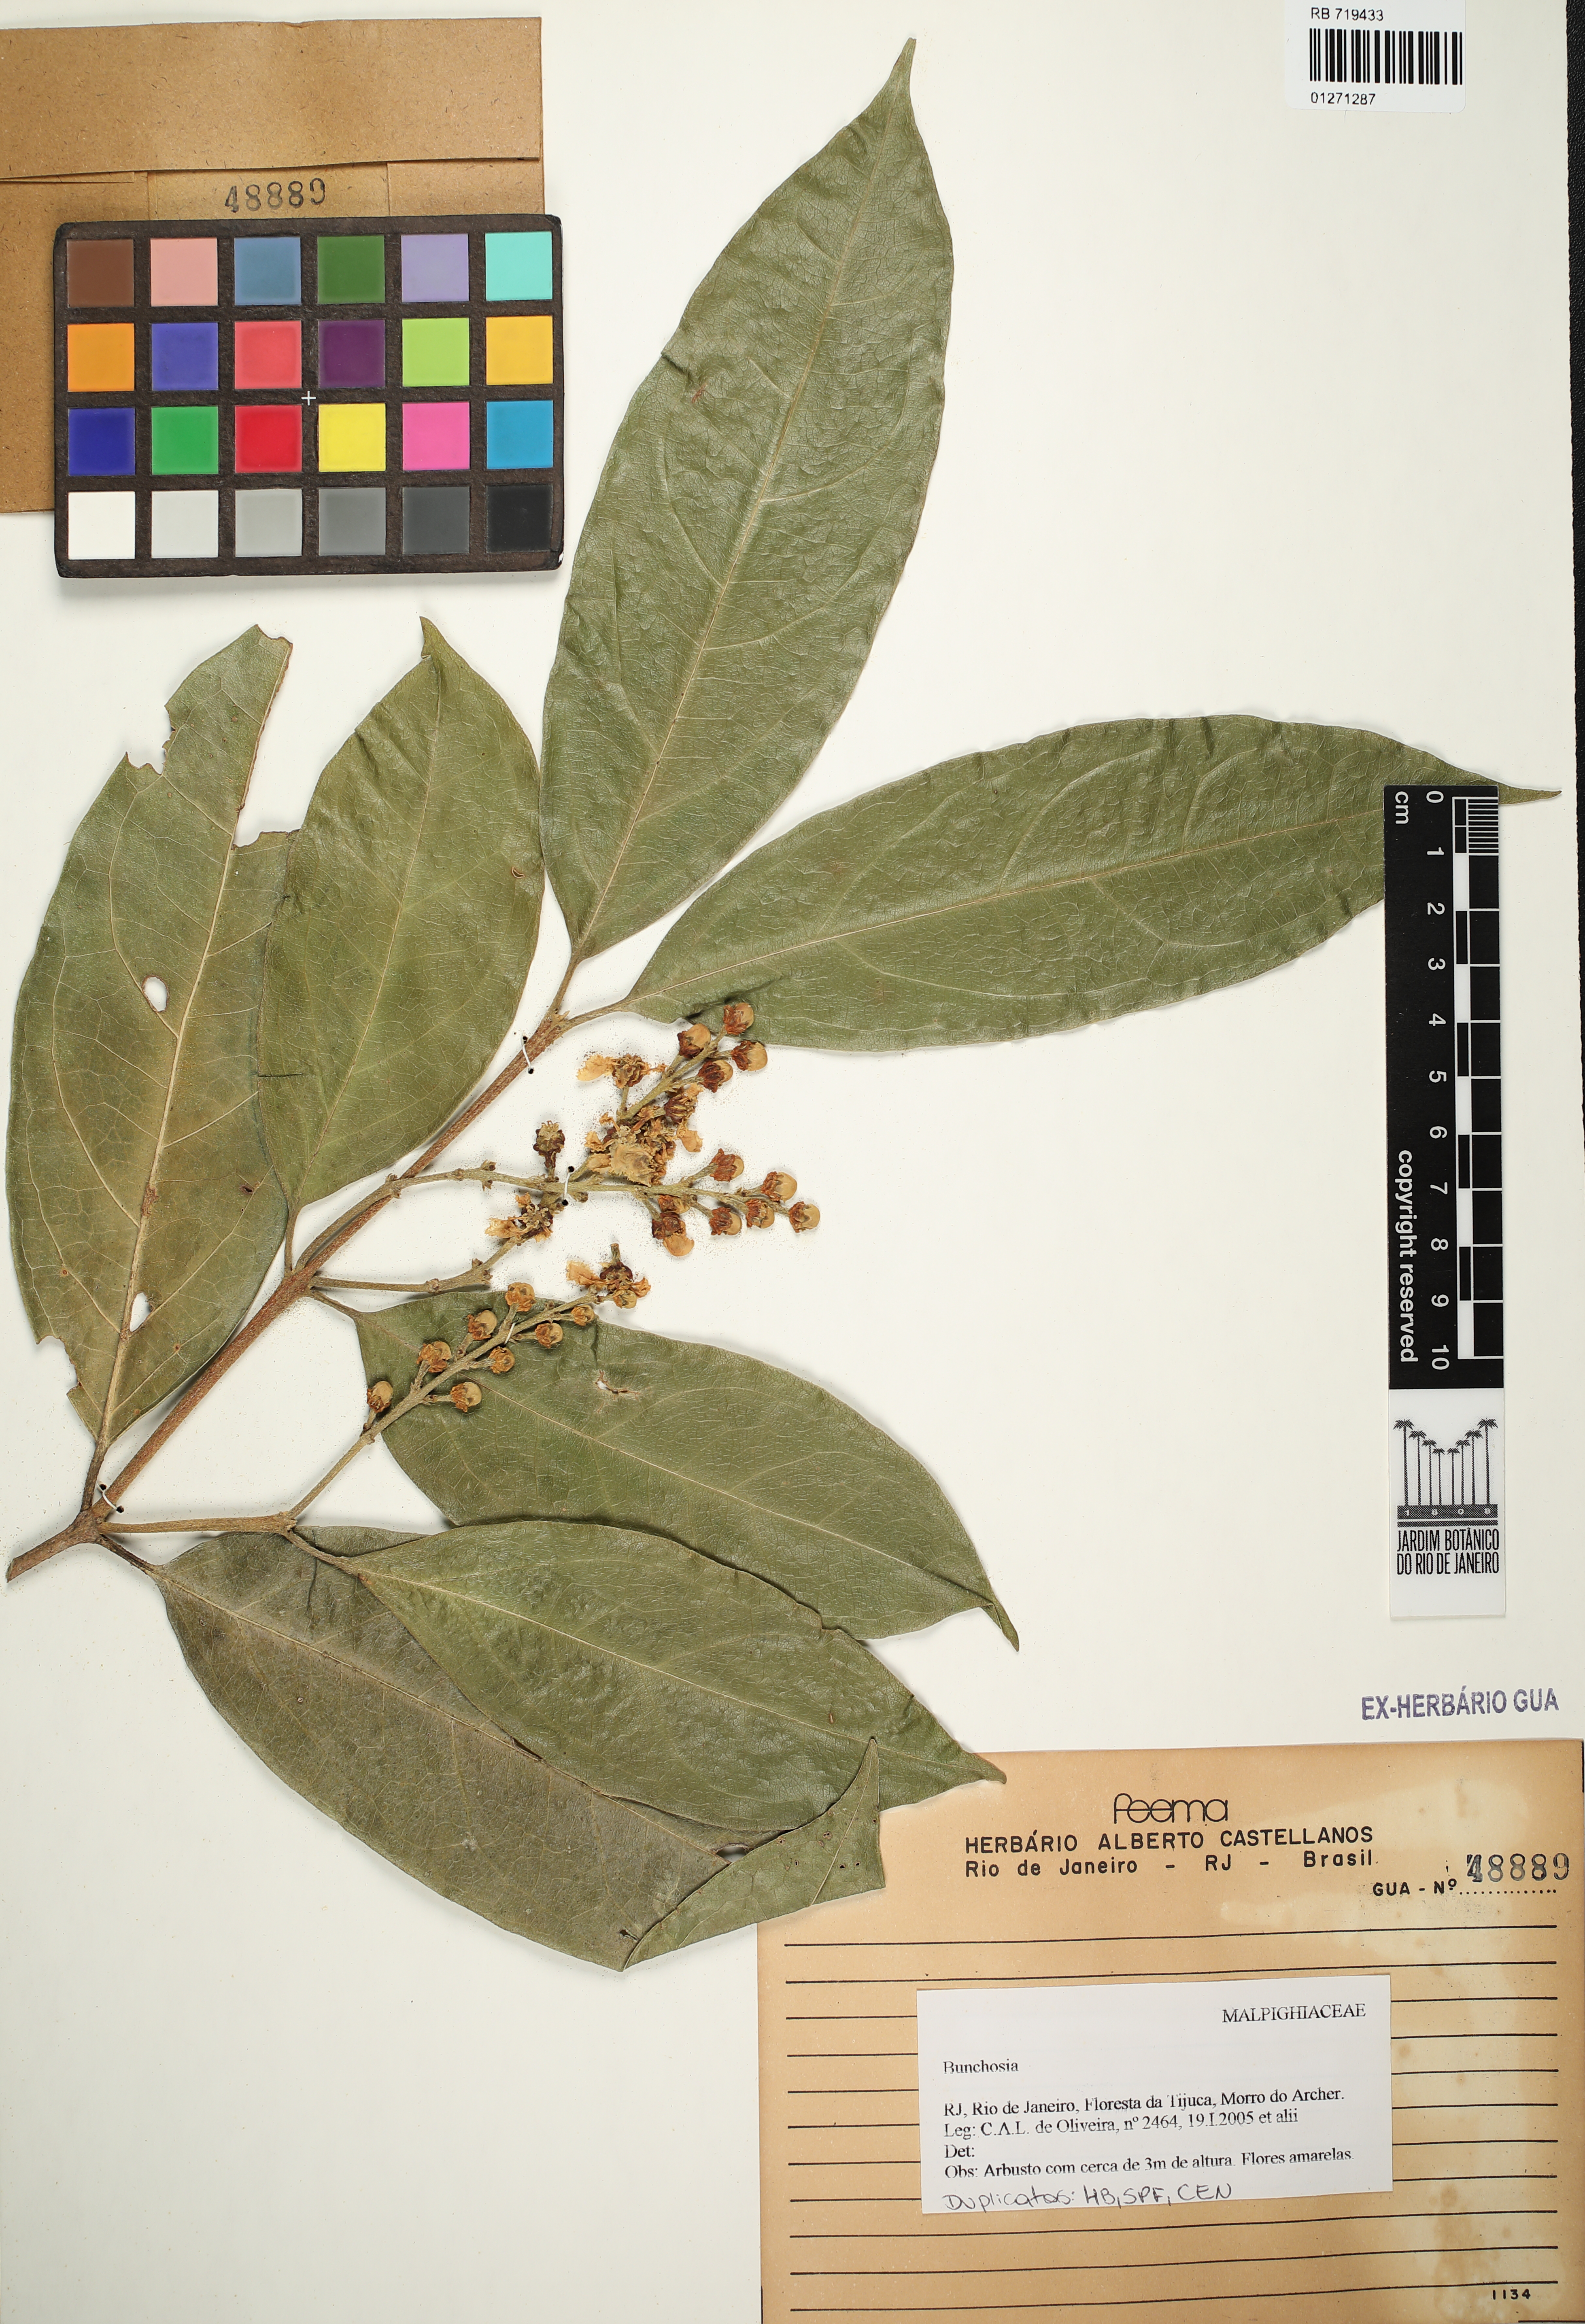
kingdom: Plantae
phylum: Tracheophyta
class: Magnoliopsida
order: Malpighiales
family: Malpighiaceae
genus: Bunchosia
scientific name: Bunchosia
